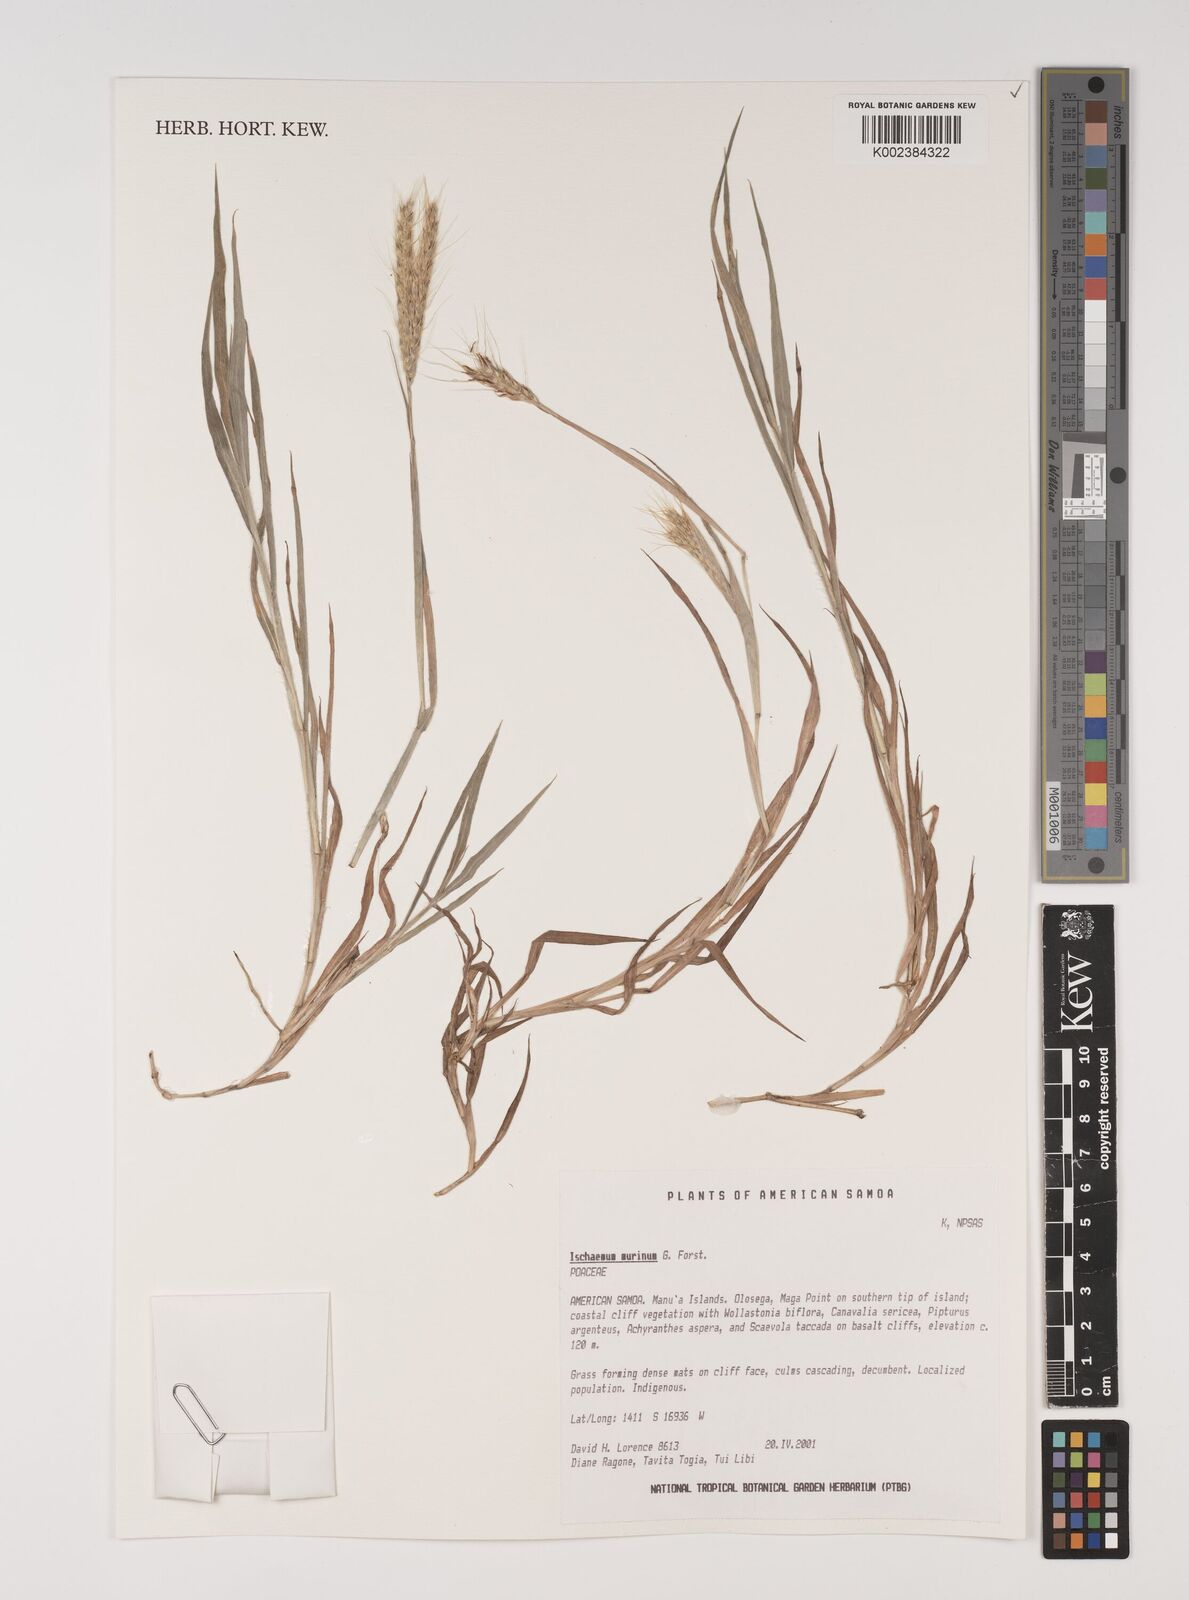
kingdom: Plantae
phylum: Tracheophyta
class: Liliopsida
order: Poales
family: Poaceae
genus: Ischaemum
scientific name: Ischaemum murinum
